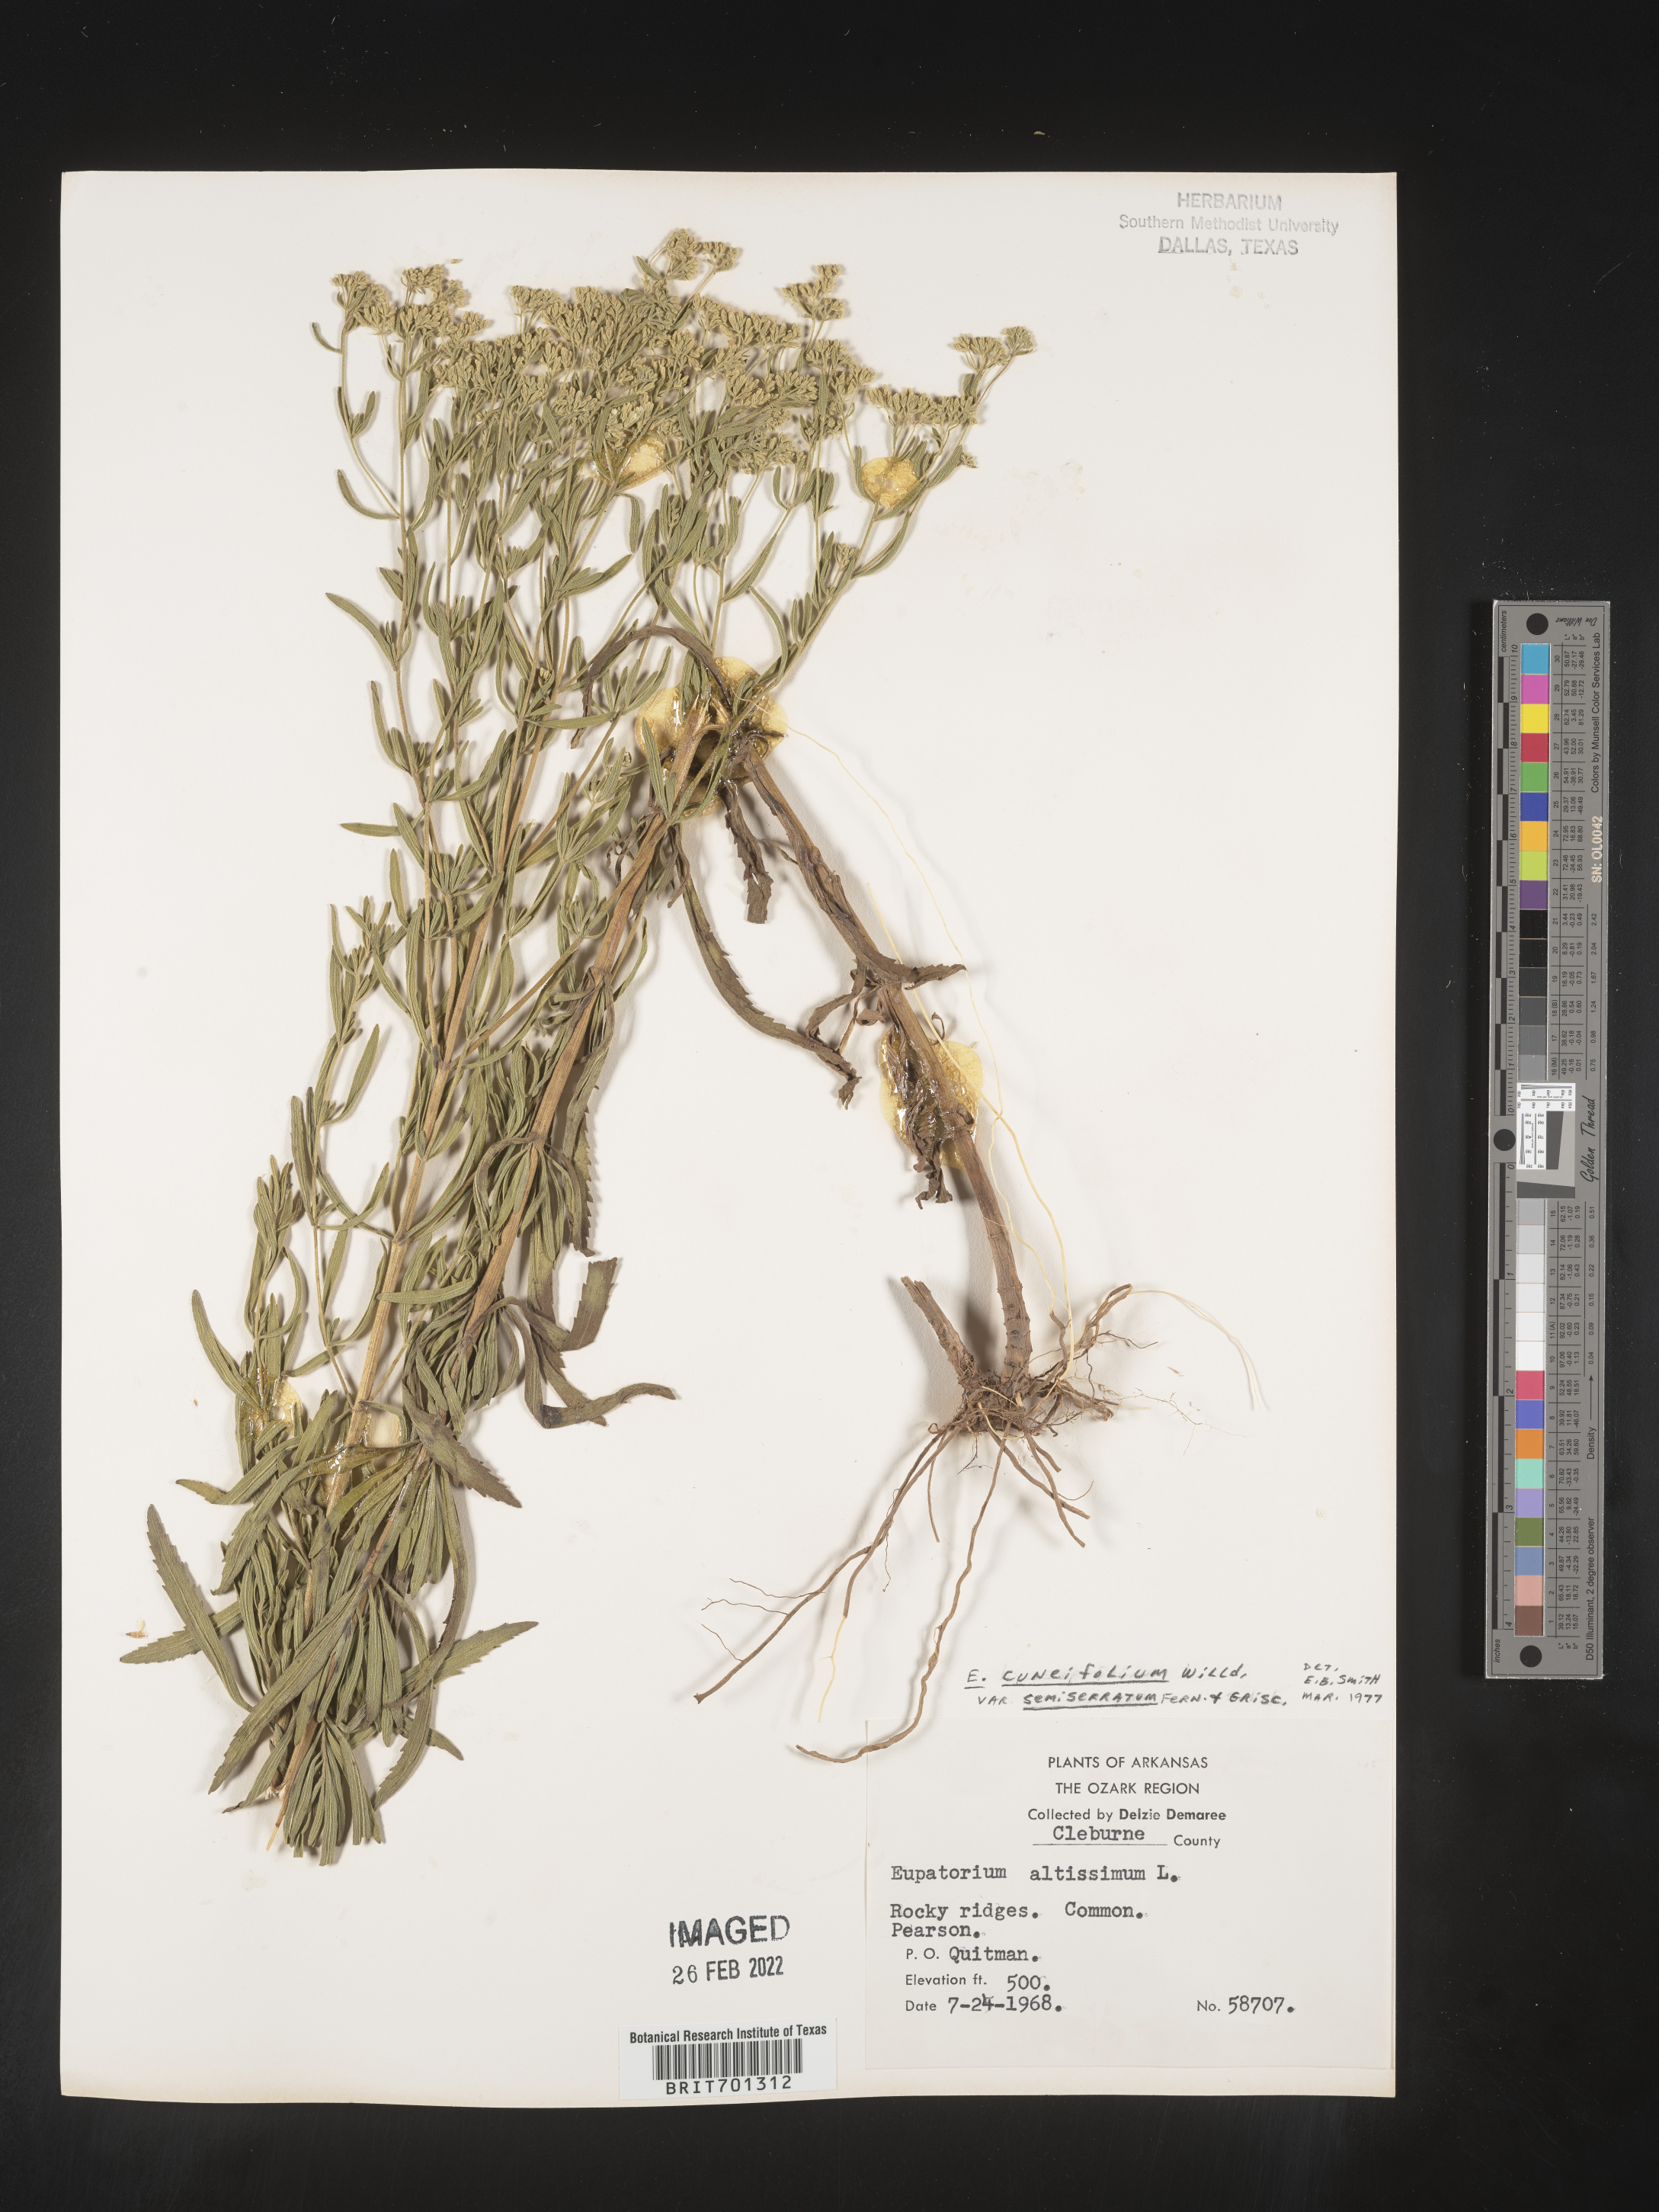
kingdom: Plantae
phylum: Tracheophyta
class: Magnoliopsida
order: Asterales
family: Asteraceae
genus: Eupatorium
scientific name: Eupatorium linearifolium
